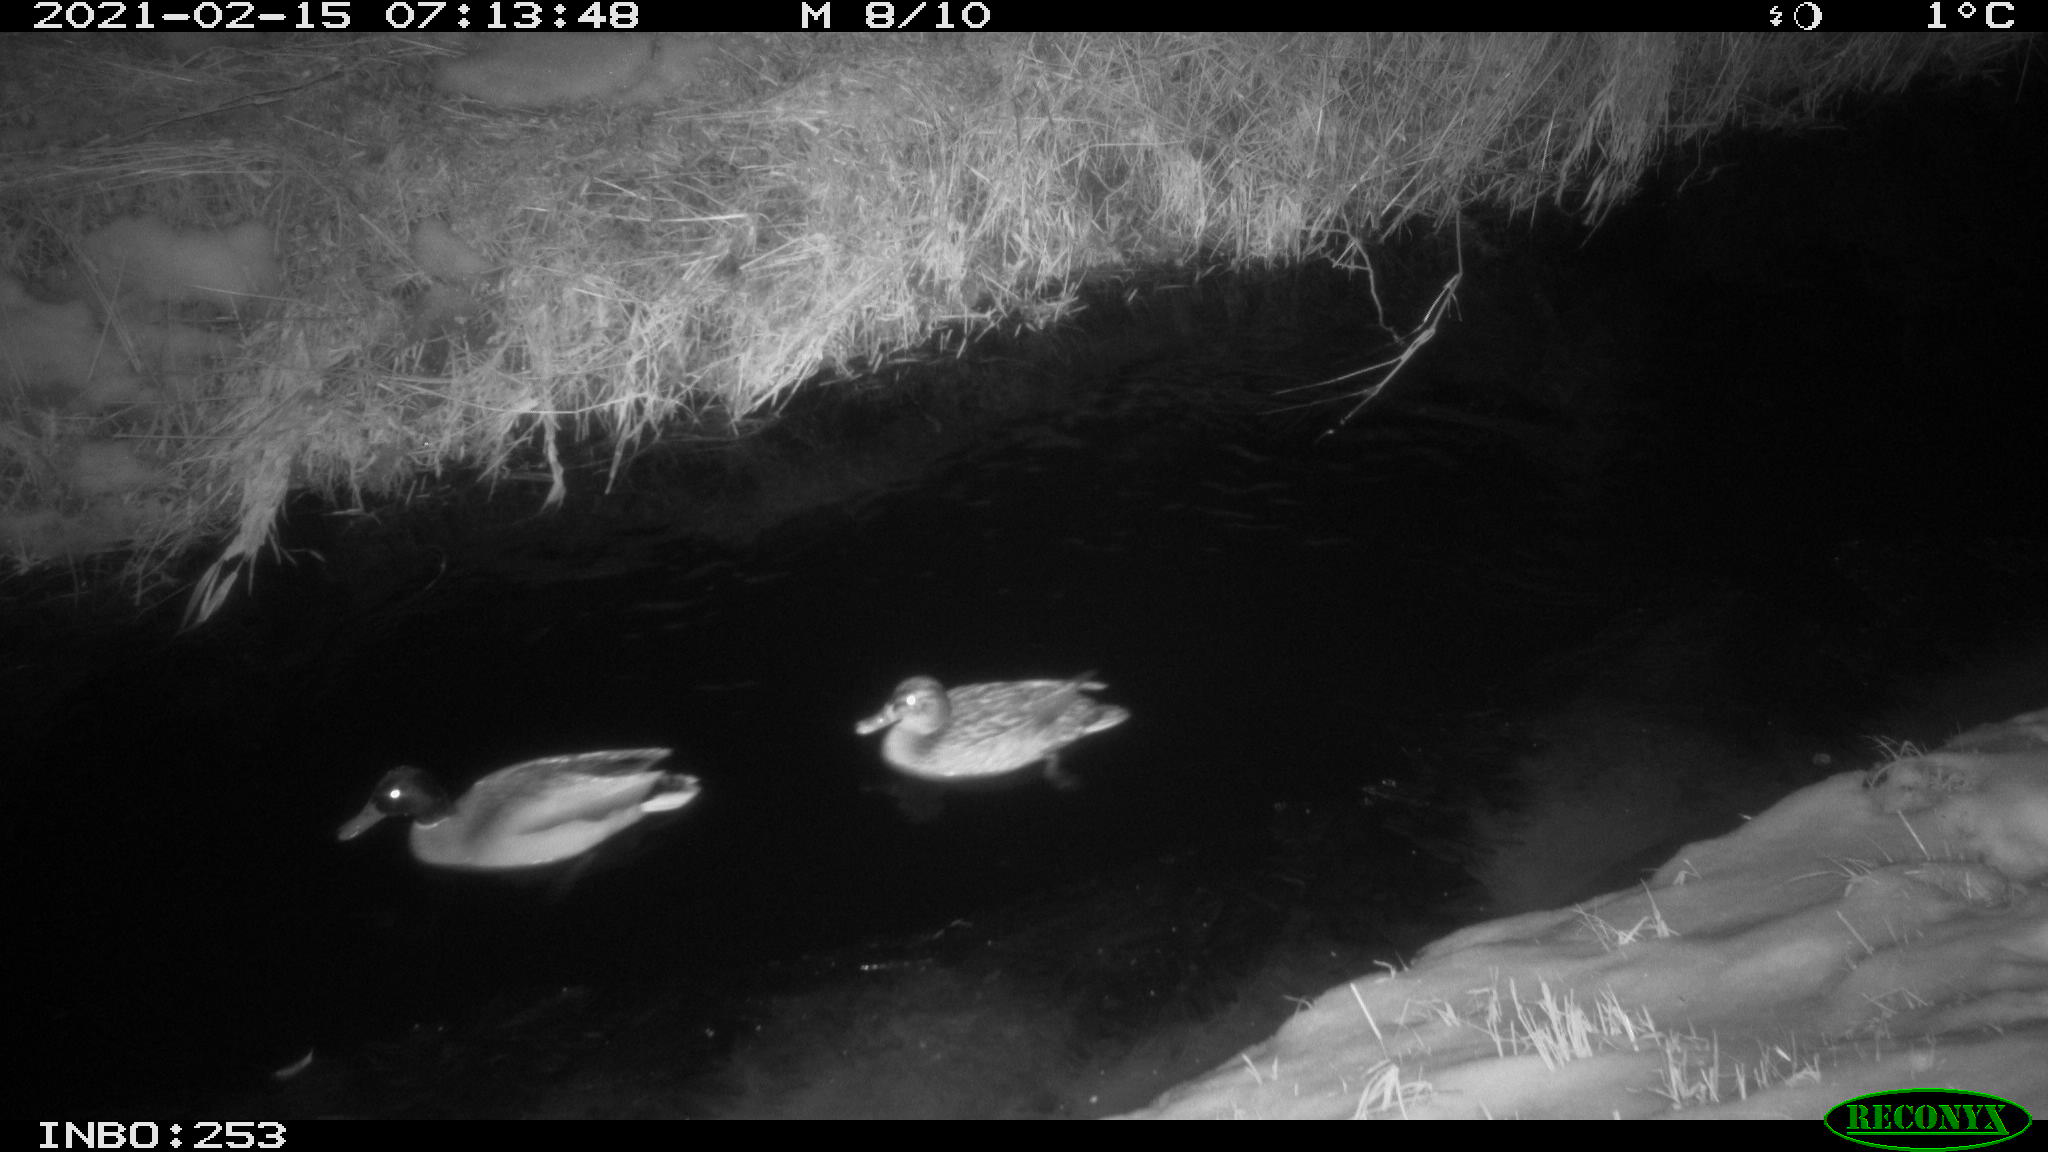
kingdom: Animalia
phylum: Chordata
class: Aves
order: Anseriformes
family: Anatidae
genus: Anas
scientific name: Anas platyrhynchos
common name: Mallard
